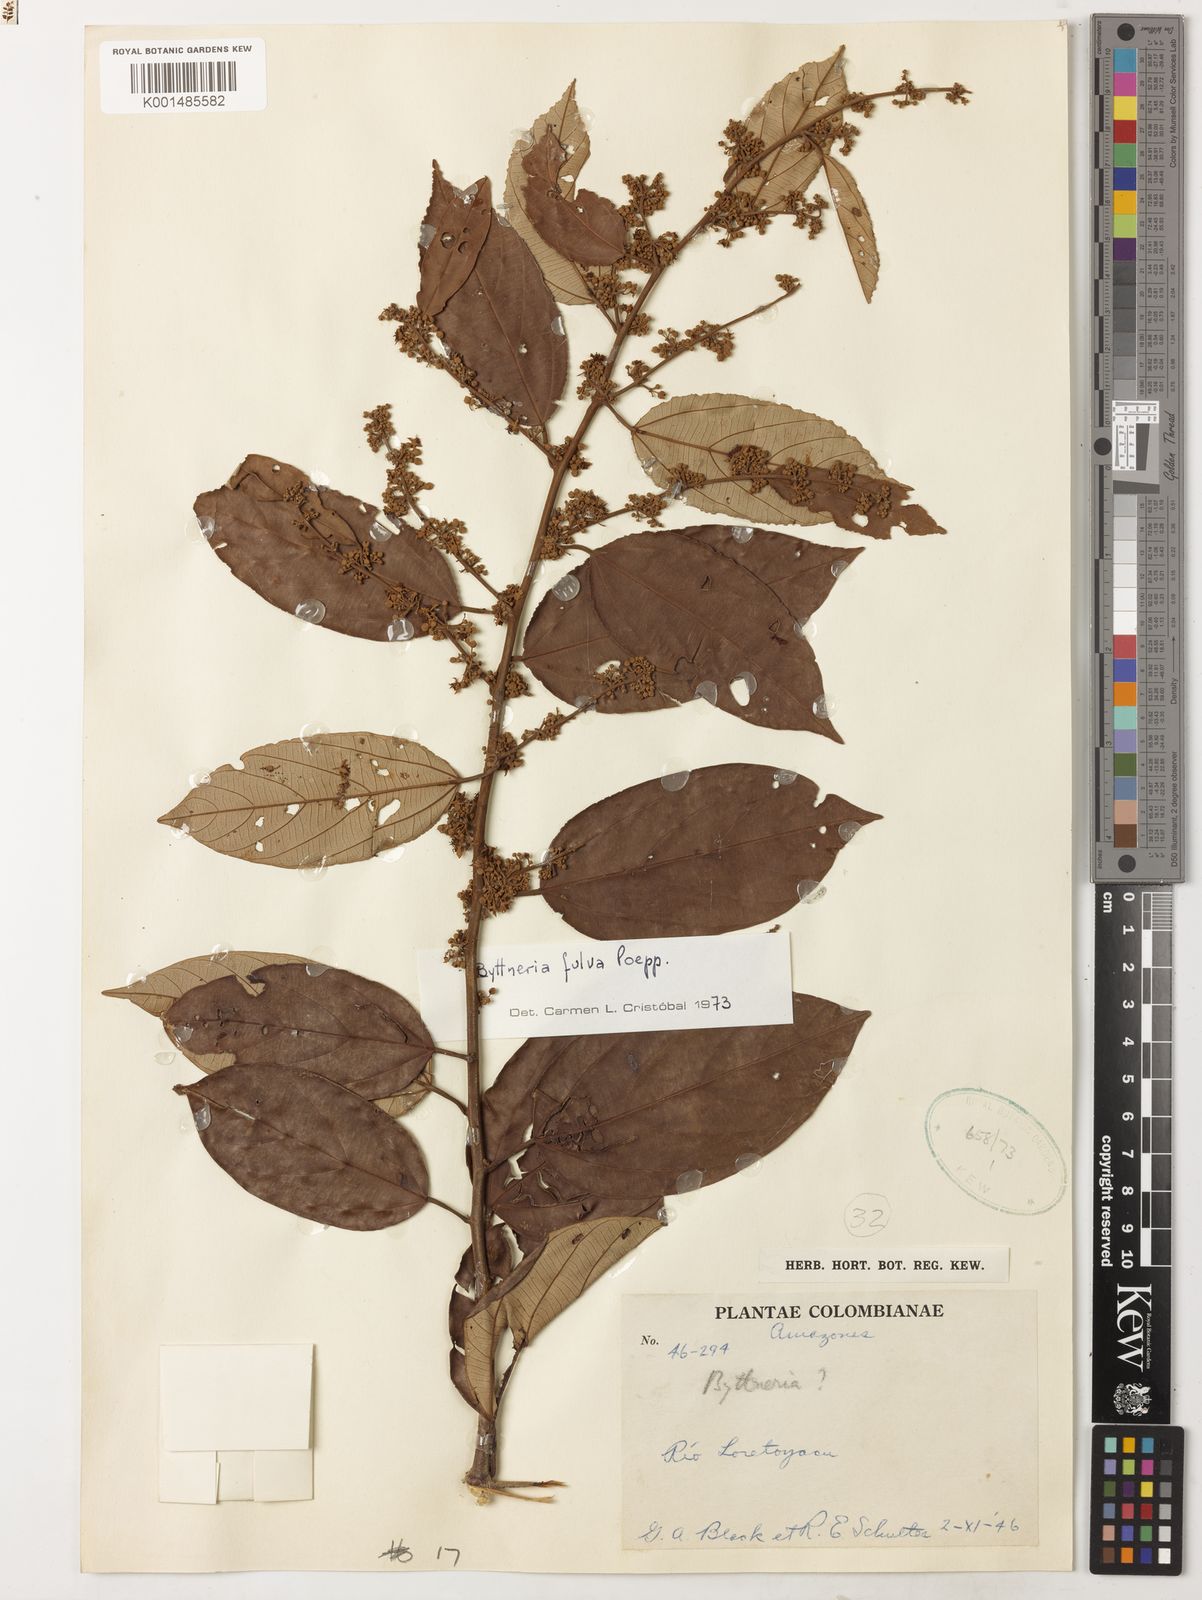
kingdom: Plantae
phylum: Tracheophyta
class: Magnoliopsida
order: Malvales
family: Malvaceae
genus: Byttneria
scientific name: Byttneria fulva
